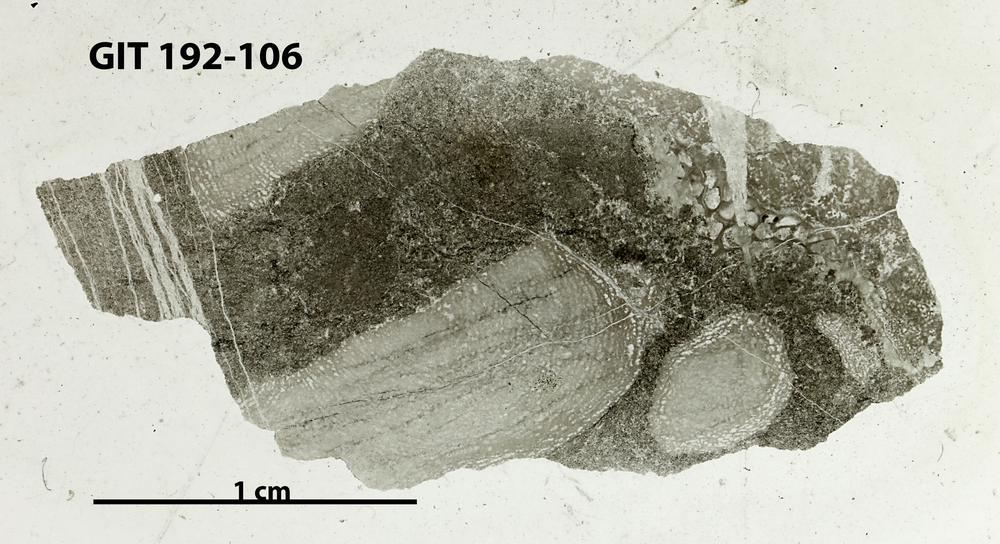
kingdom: Animalia
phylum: Porifera
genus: Clavidictyon
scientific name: Clavidictyon
